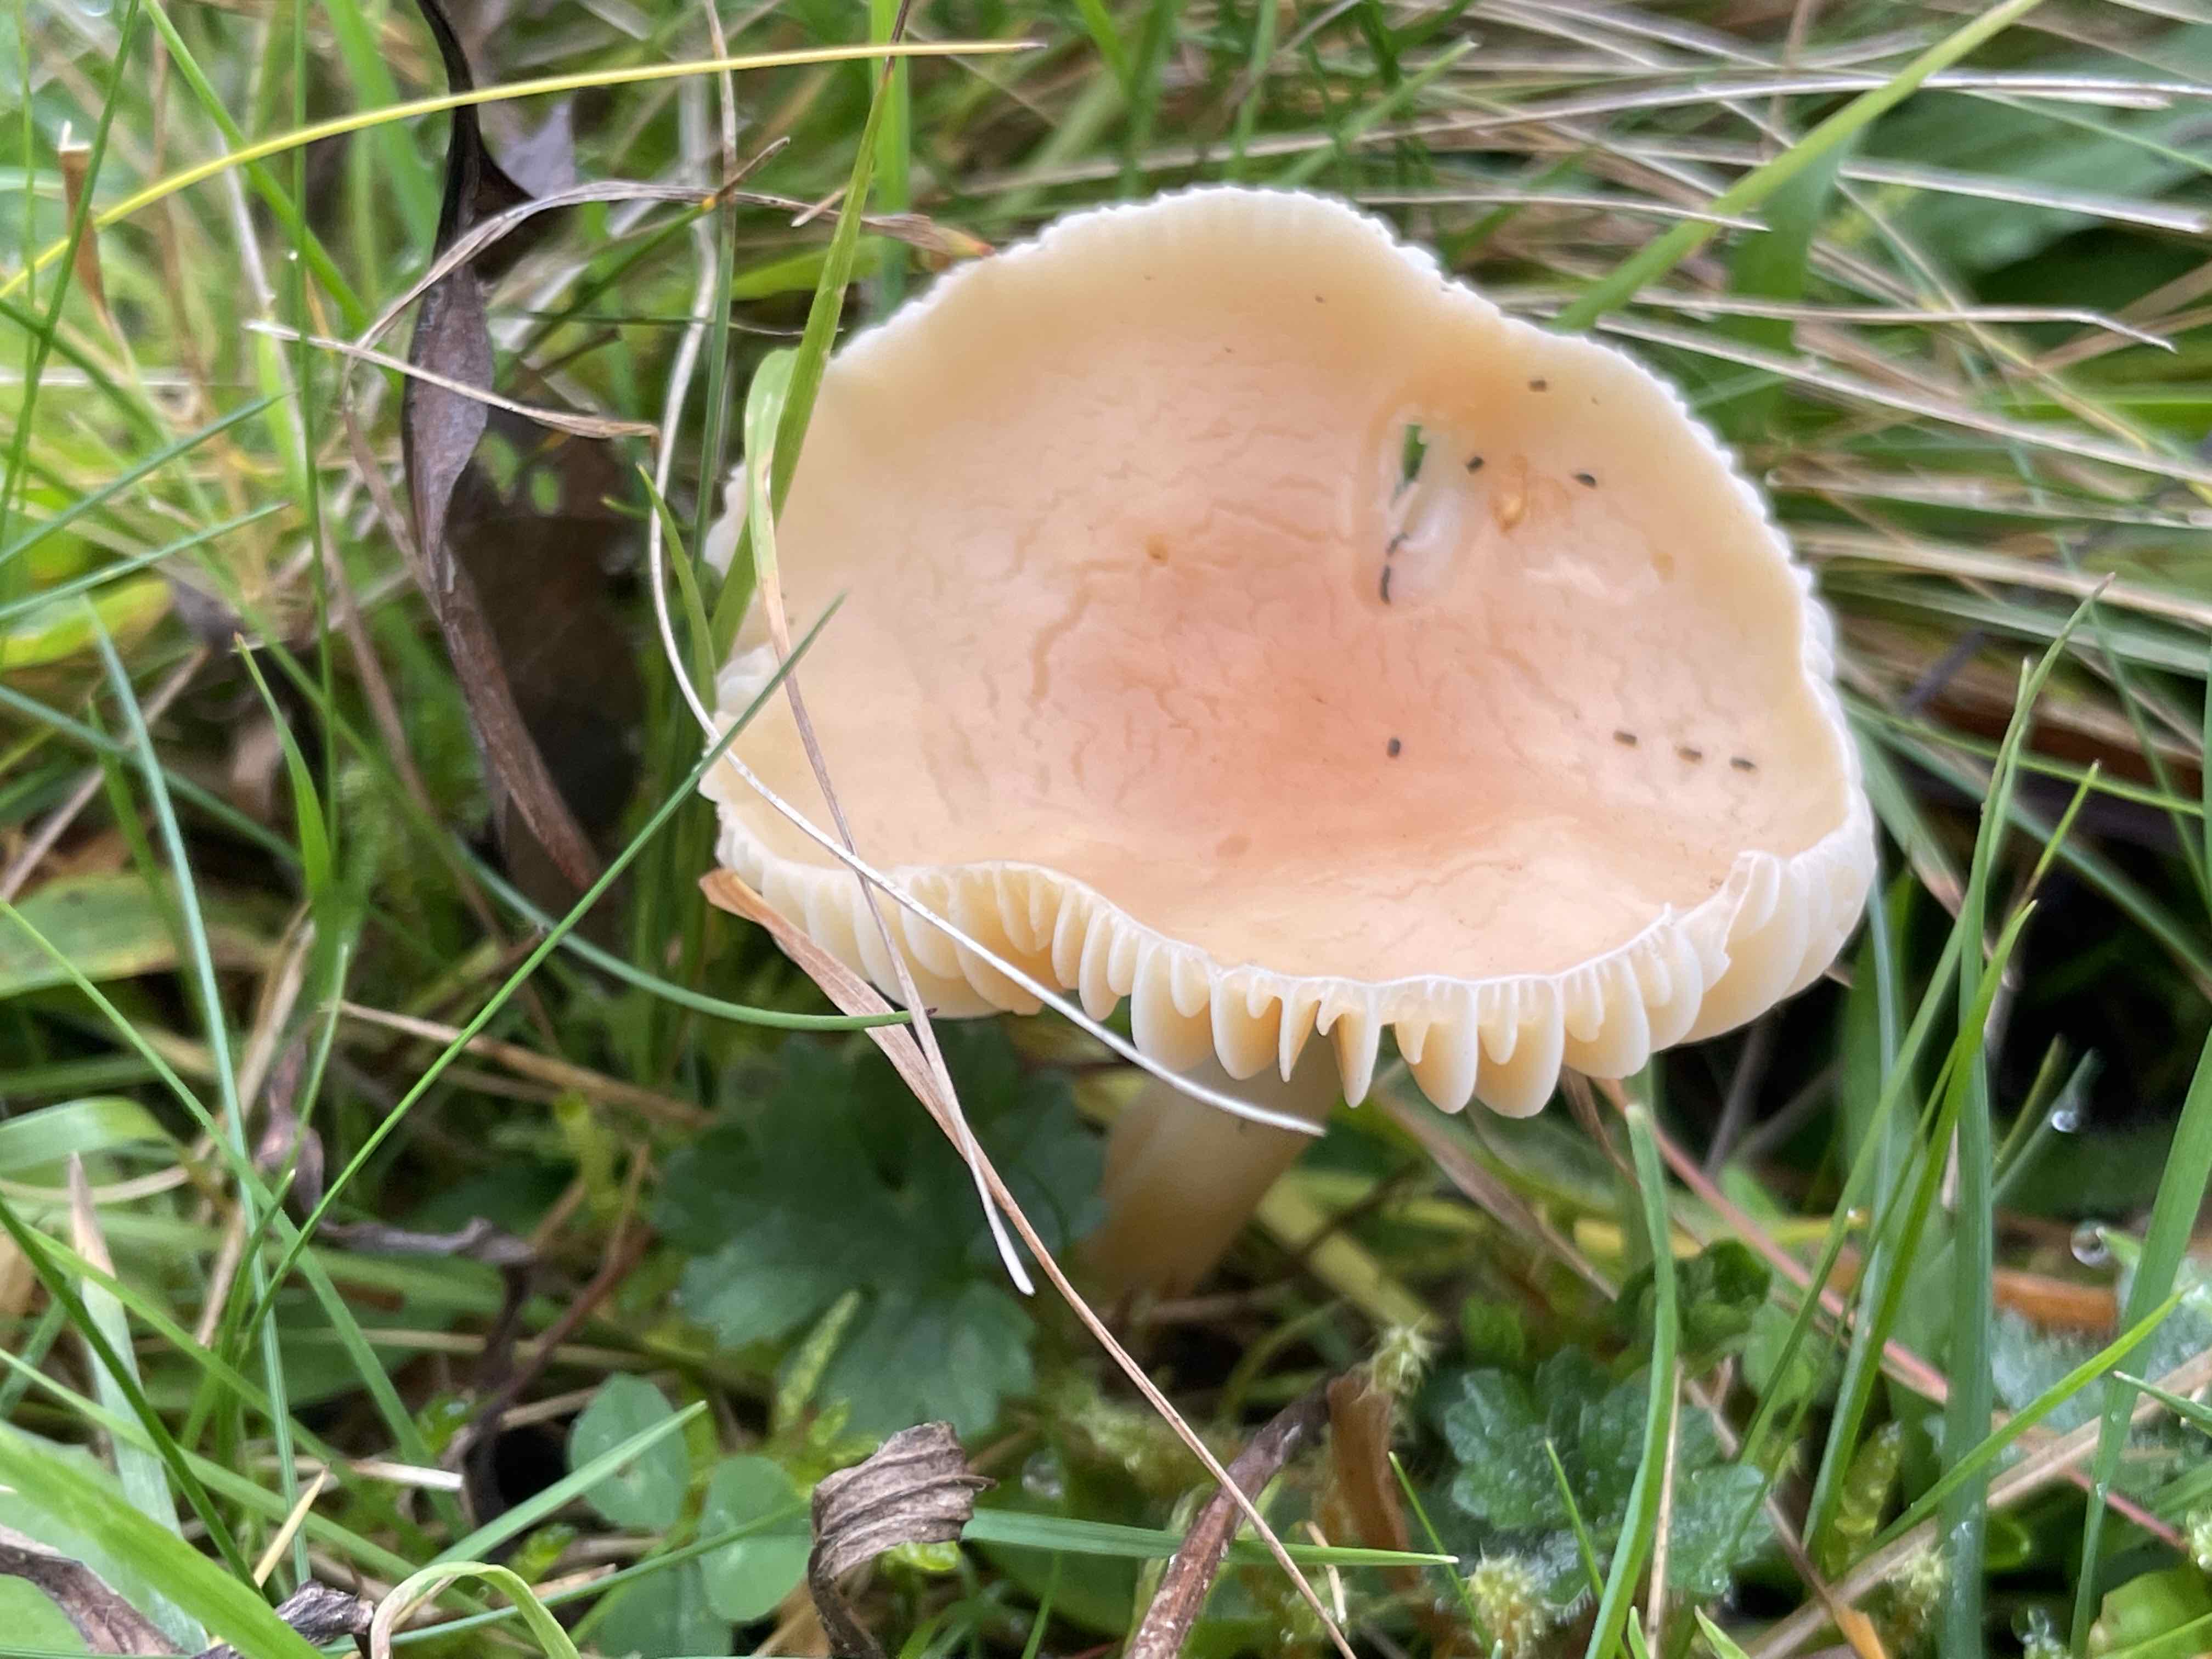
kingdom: Fungi
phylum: Basidiomycota
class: Agaricomycetes
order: Agaricales
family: Hygrophoraceae
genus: Cuphophyllus
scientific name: Cuphophyllus pratensis
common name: eng-vokshat
